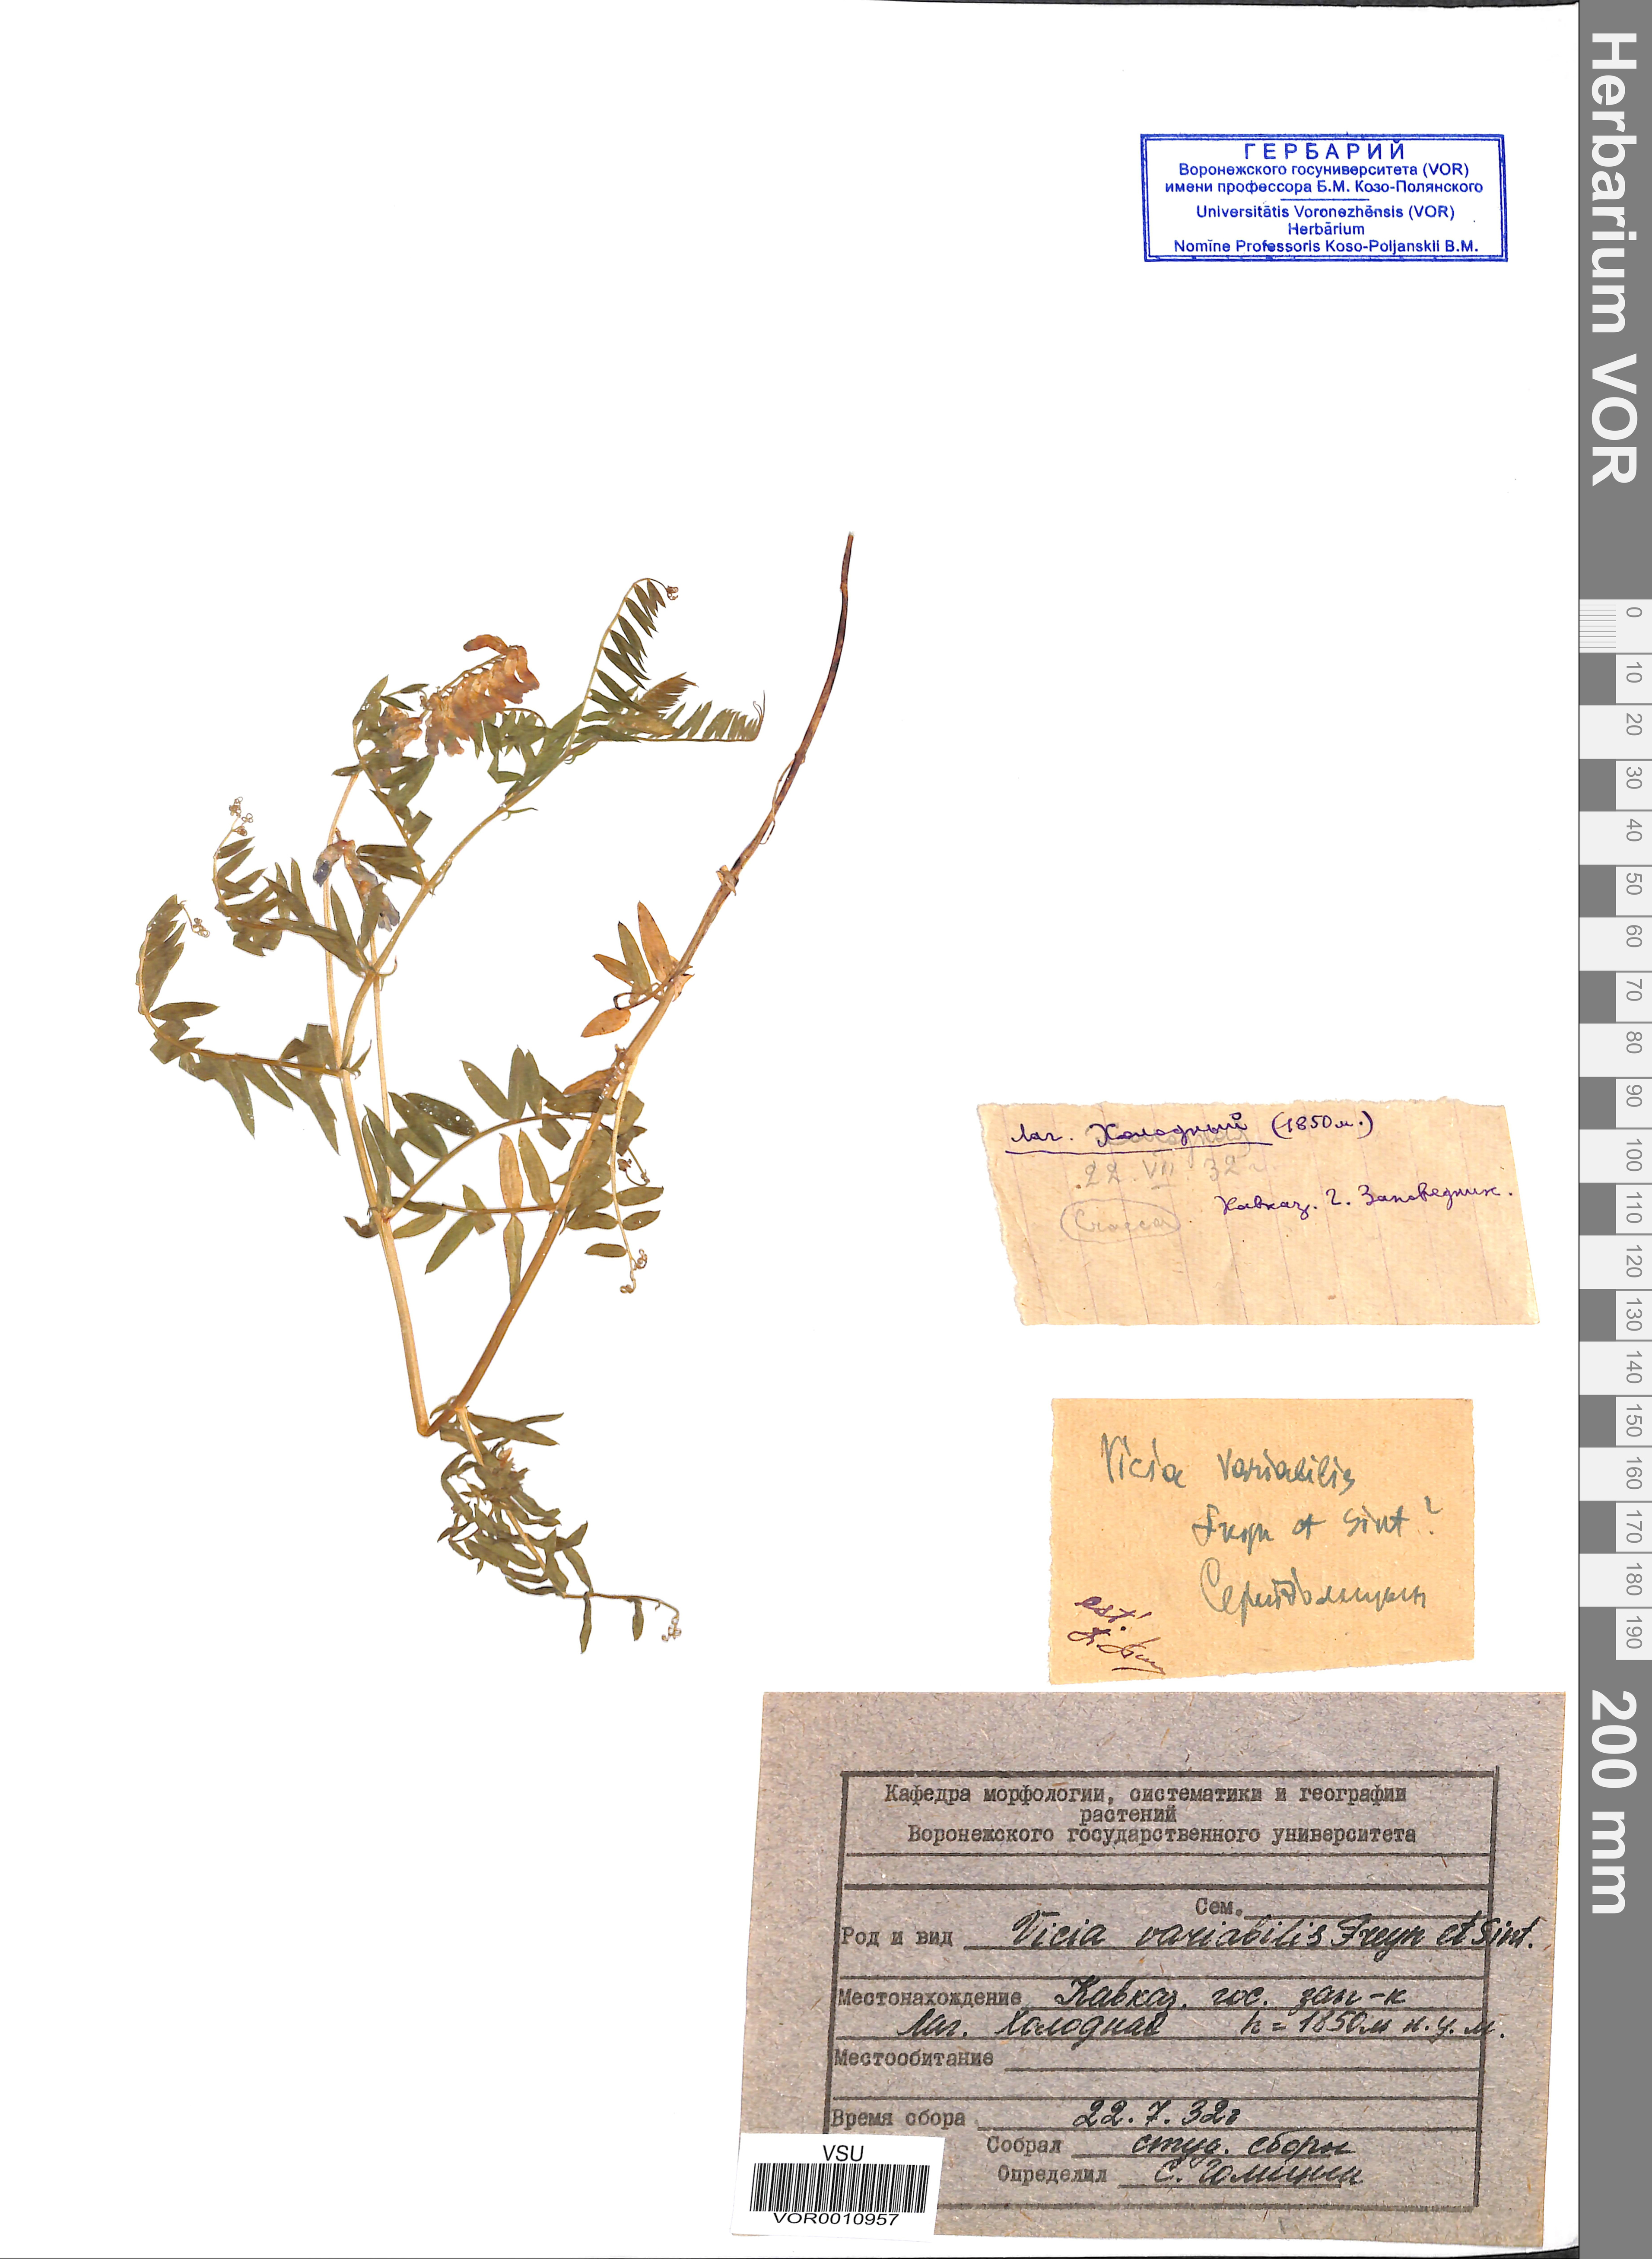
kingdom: Plantae
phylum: Tracheophyta
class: Magnoliopsida
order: Fabales
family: Fabaceae
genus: Vicia
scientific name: Vicia tenuifolia
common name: Fine-leaved vetch
